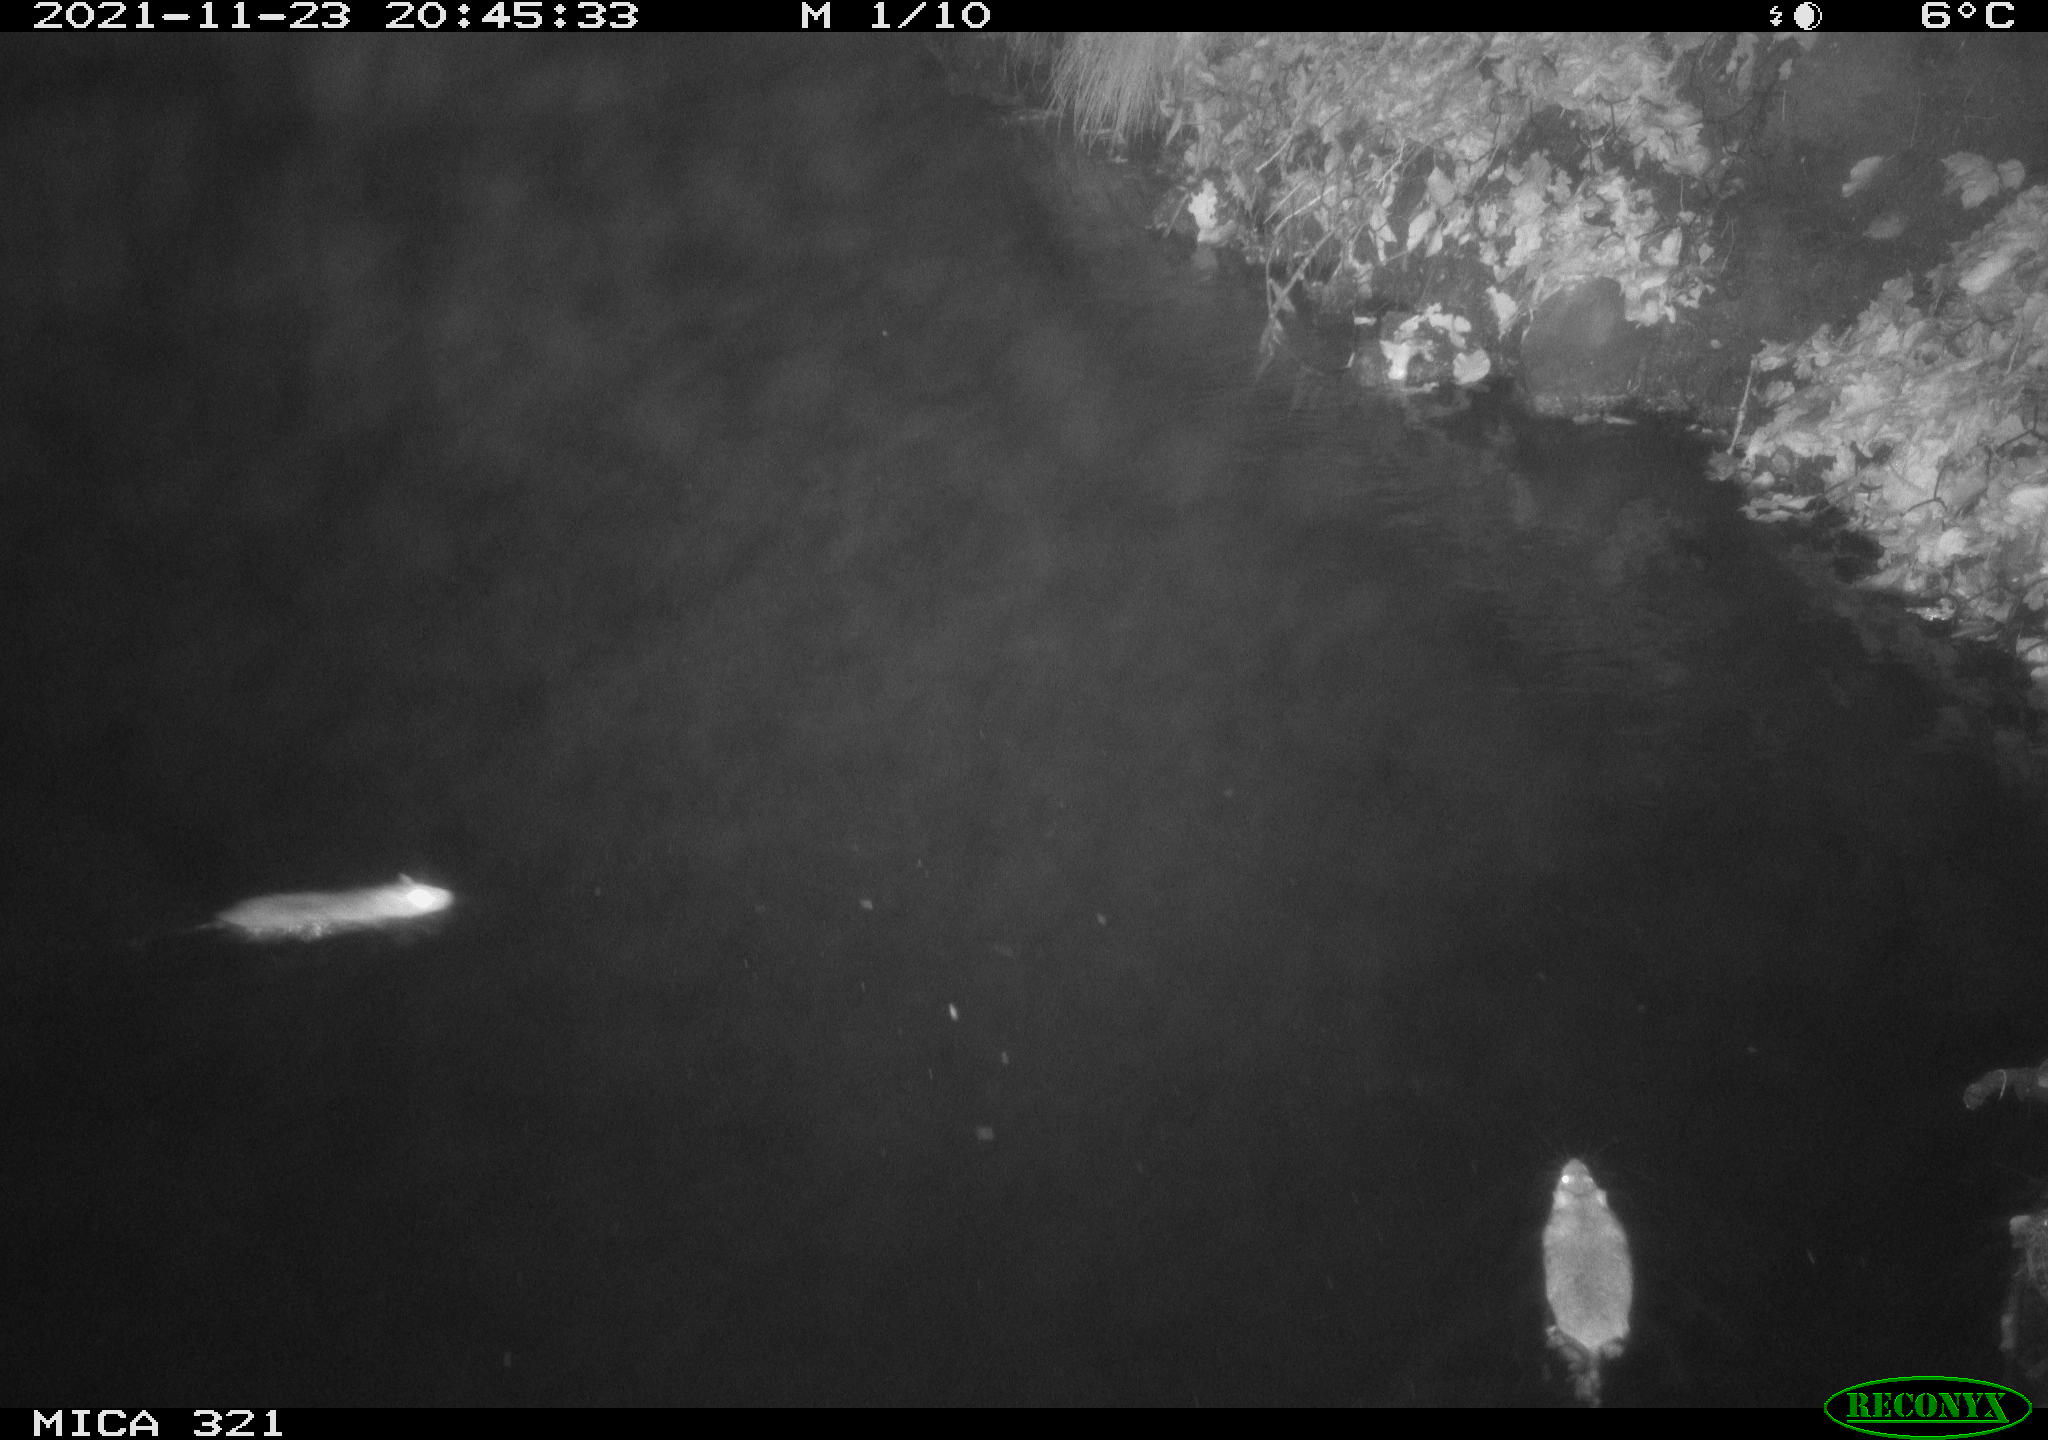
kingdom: Animalia
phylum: Chordata
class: Mammalia
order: Rodentia
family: Muridae
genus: Rattus
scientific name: Rattus norvegicus
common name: Brown rat
